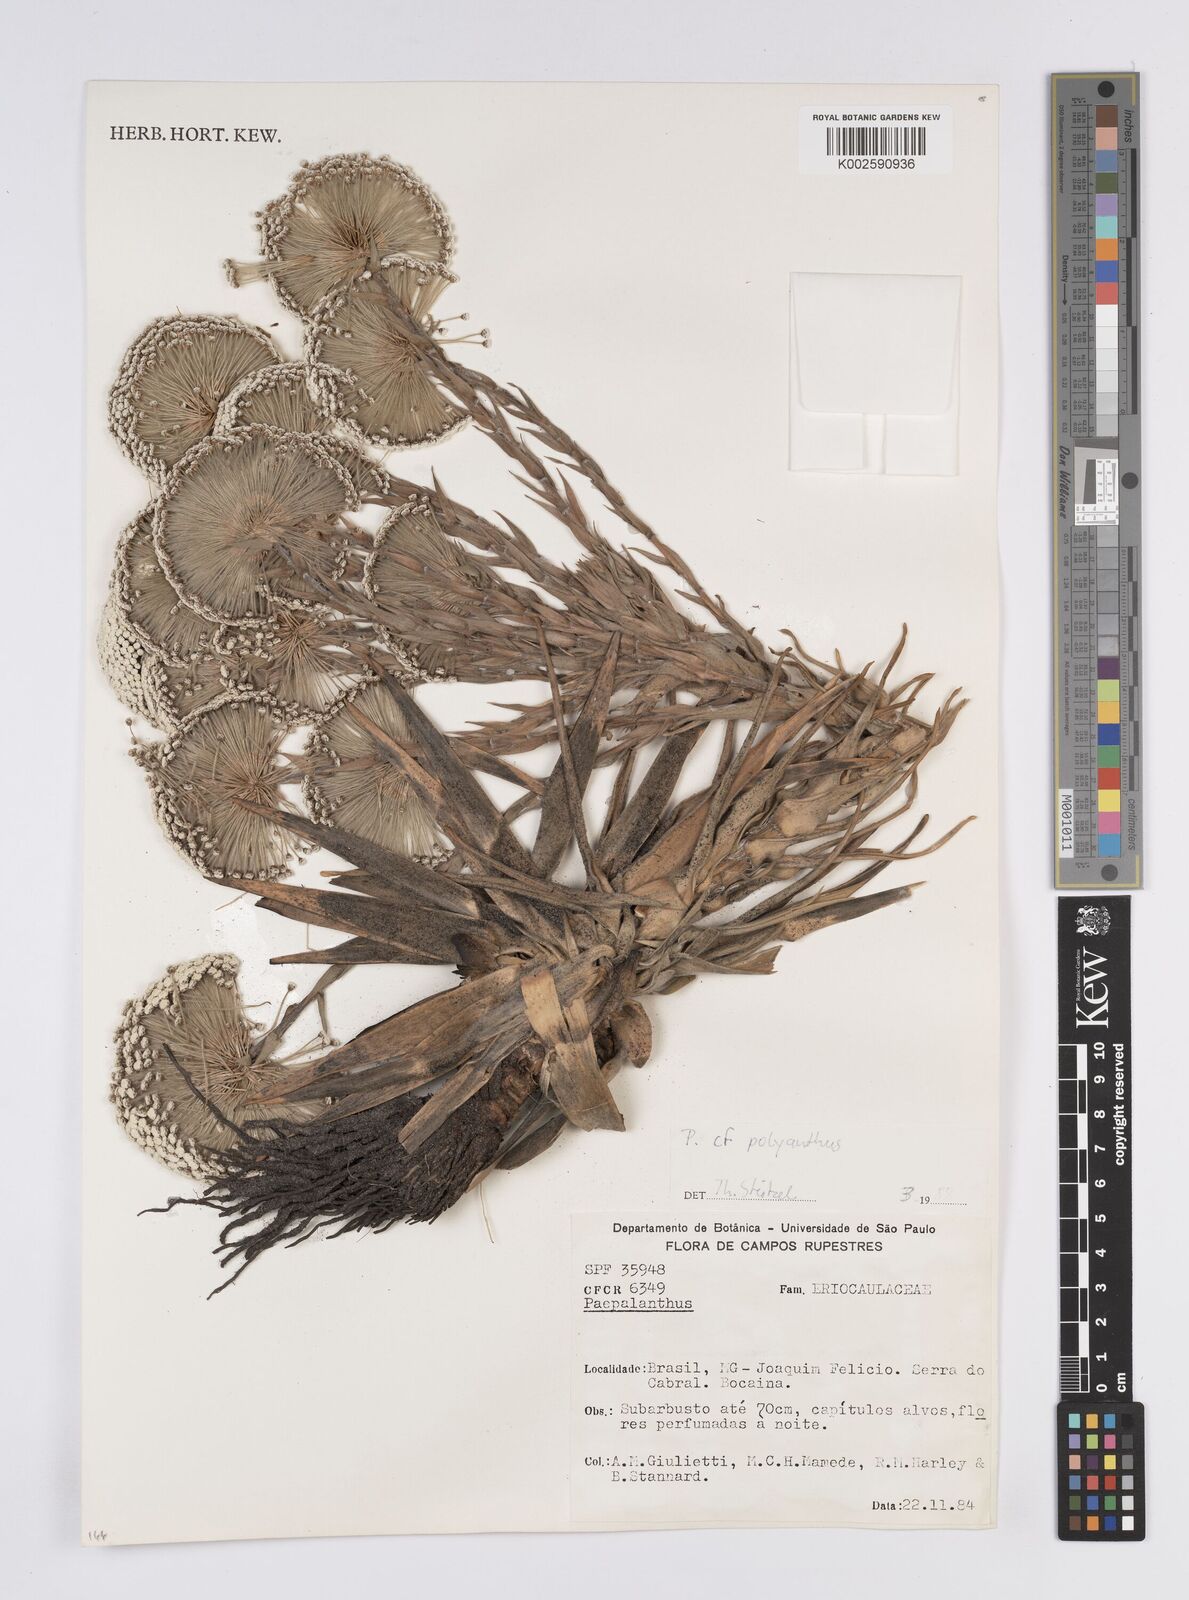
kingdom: Plantae
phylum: Tracheophyta
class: Liliopsida
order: Poales
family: Eriocaulaceae
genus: Paepalanthus
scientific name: Paepalanthus polyanthus
